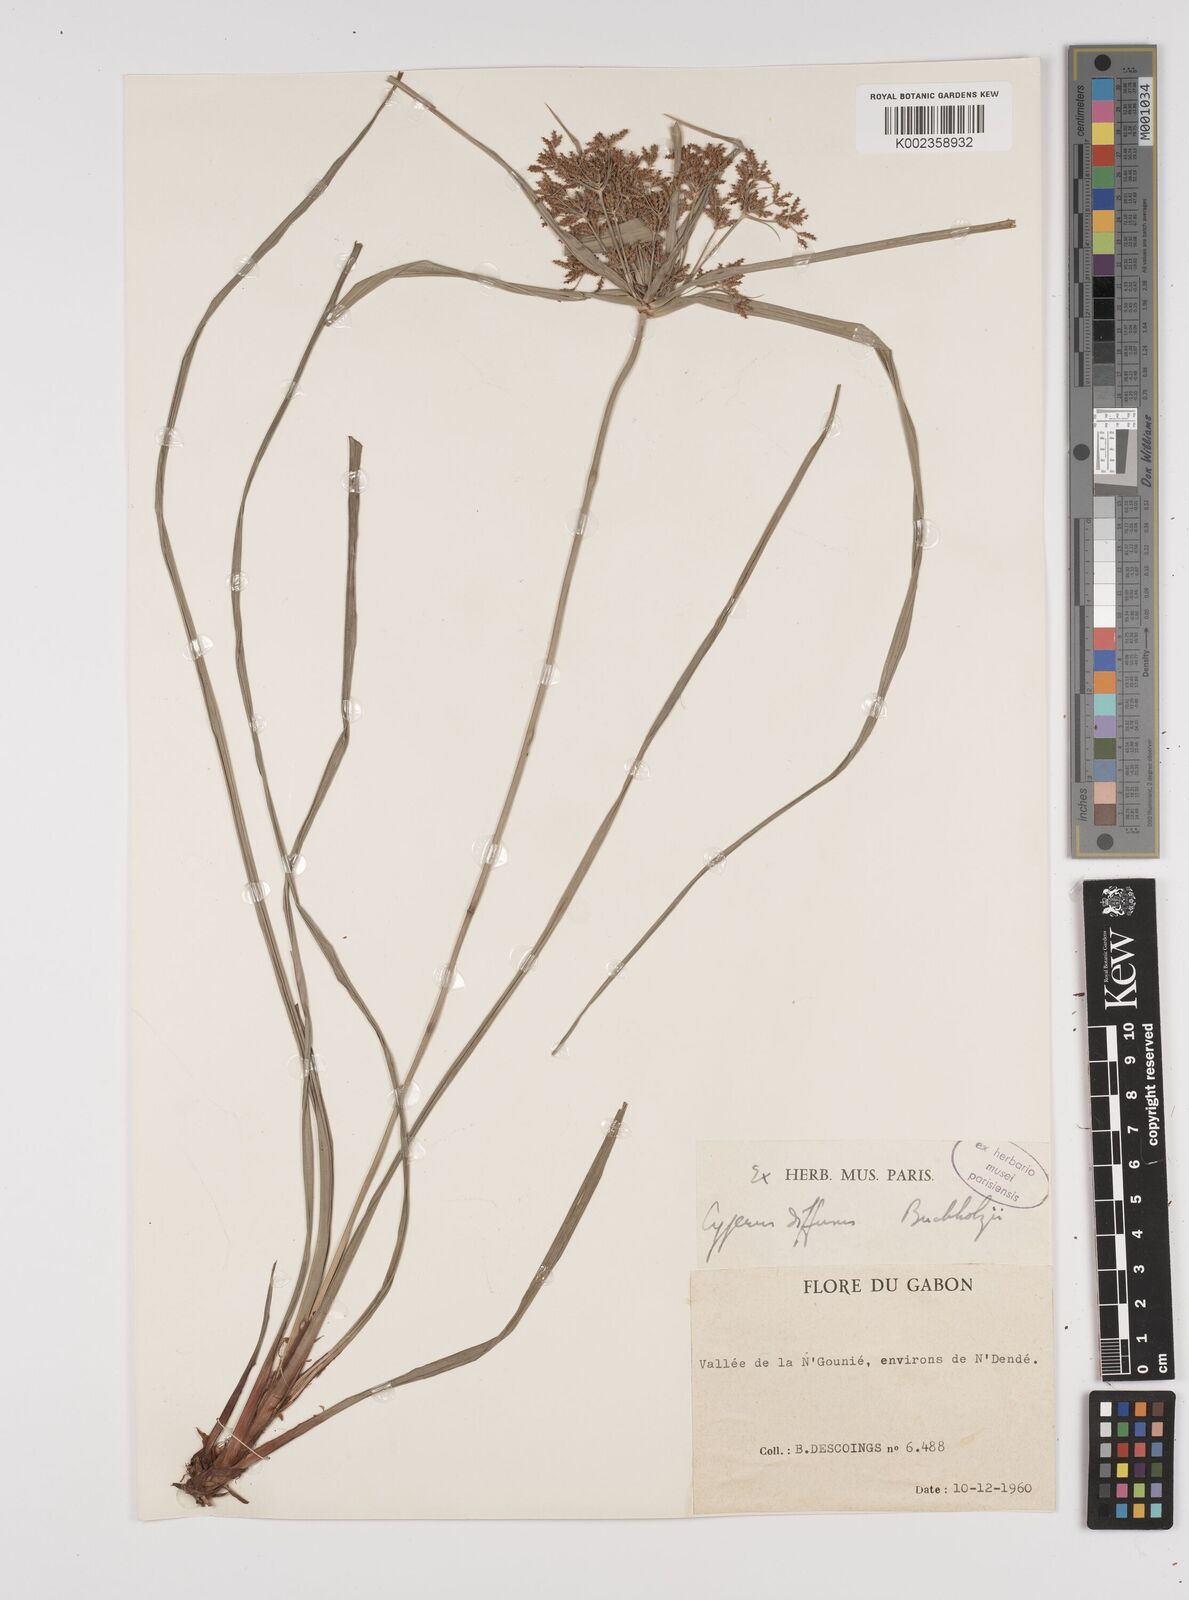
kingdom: Plantae
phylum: Tracheophyta
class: Liliopsida
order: Poales
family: Cyperaceae
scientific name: Cyperaceae
